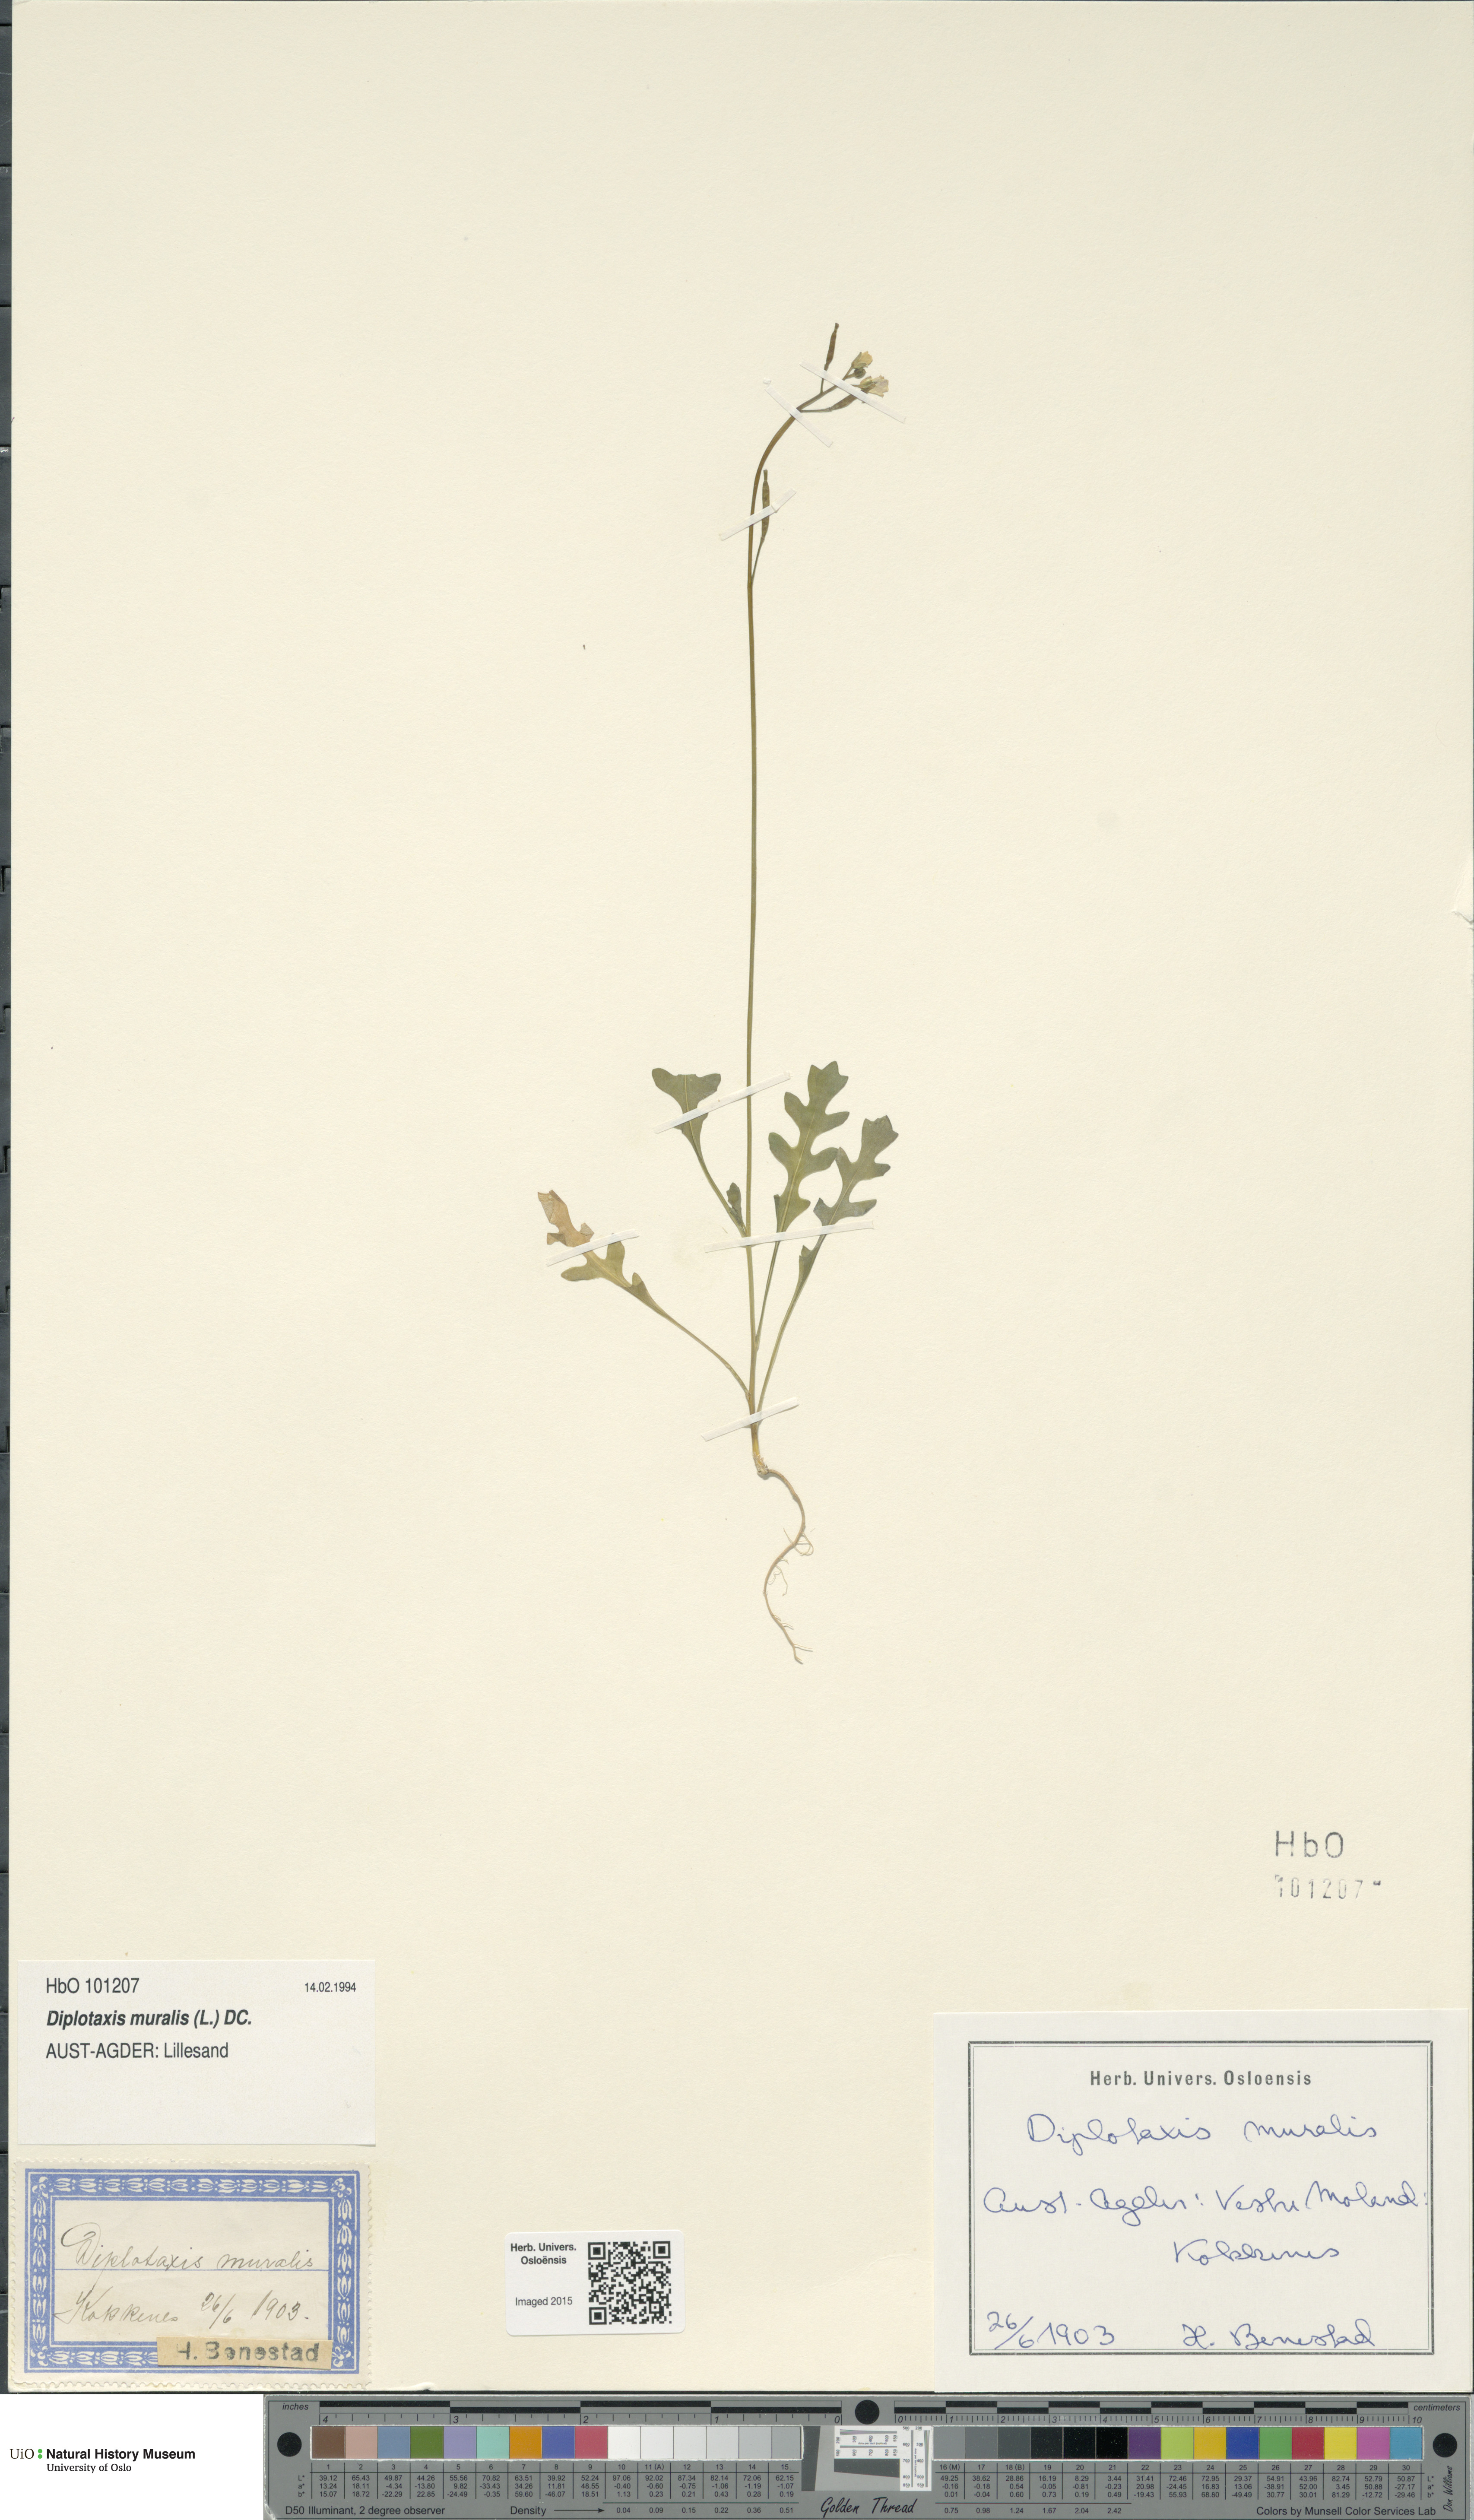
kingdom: Plantae
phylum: Tracheophyta
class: Magnoliopsida
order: Brassicales
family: Brassicaceae
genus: Diplotaxis
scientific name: Diplotaxis muralis
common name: Annual wall-rocket
